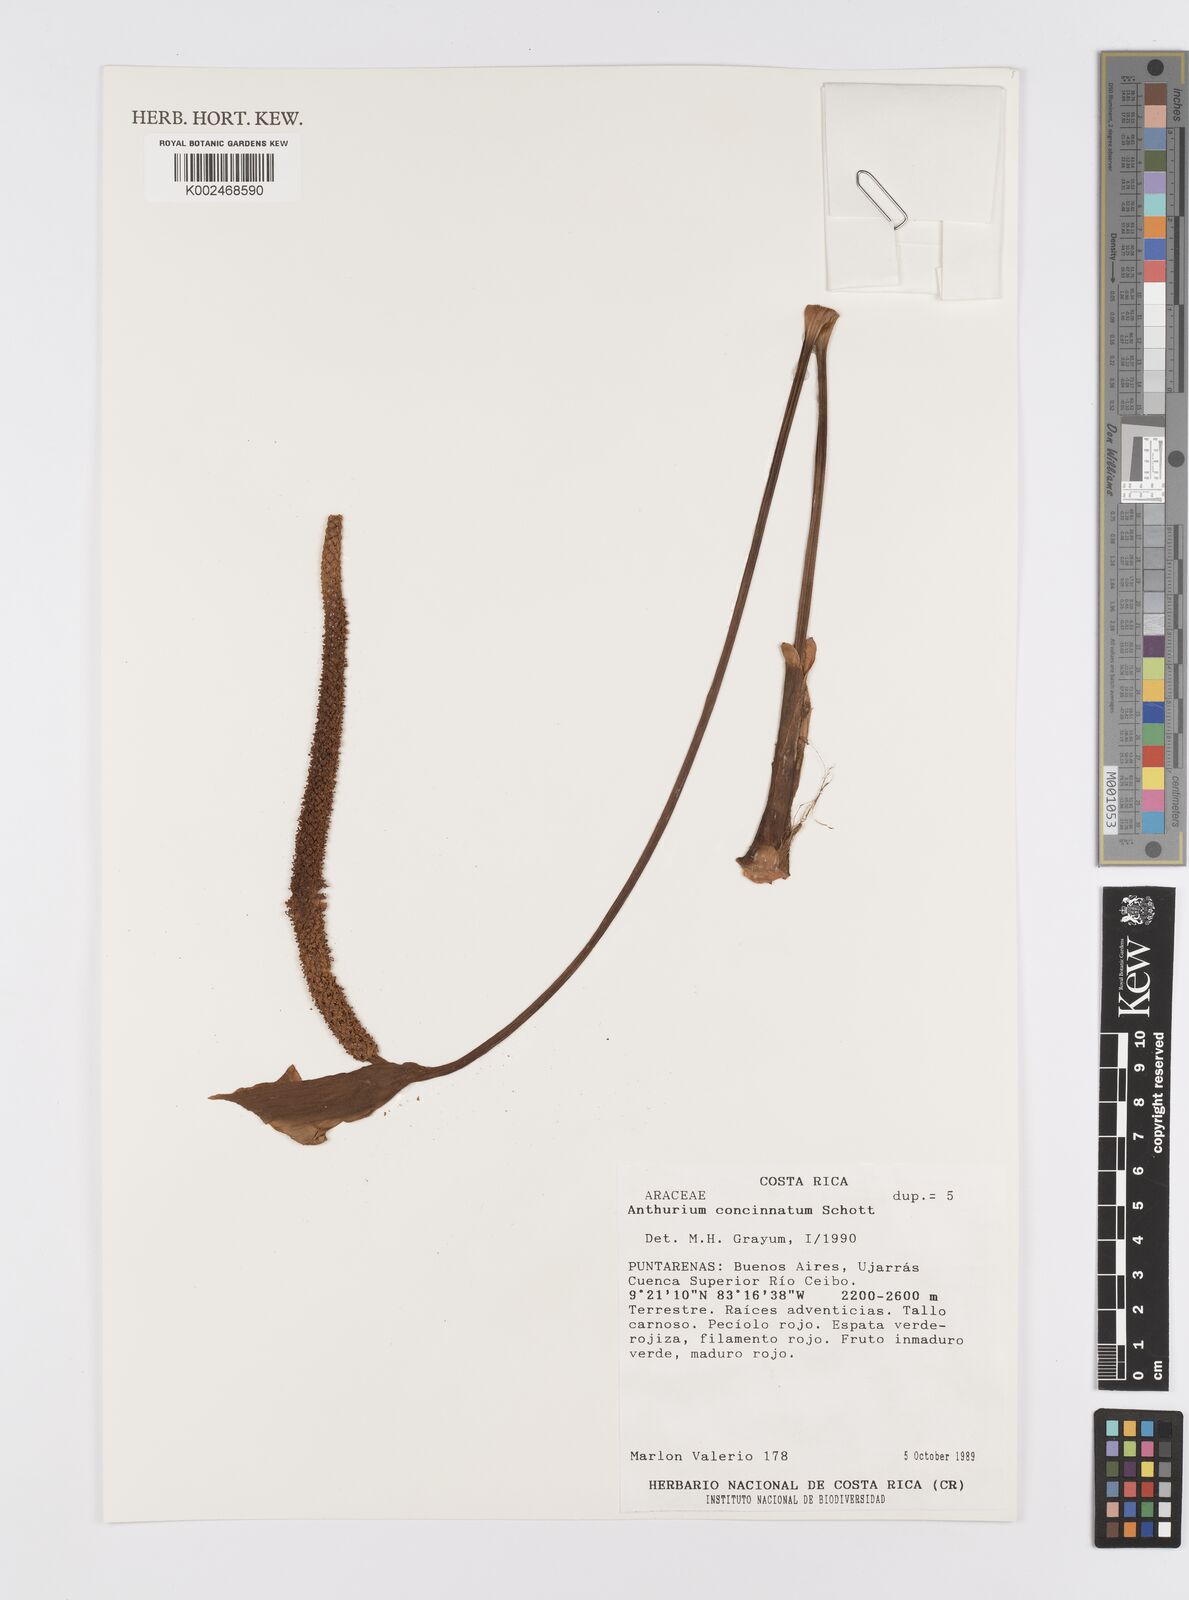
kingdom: Plantae
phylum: Tracheophyta
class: Liliopsida
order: Alismatales
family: Araceae
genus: Anthurium
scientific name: Anthurium concinnatum
